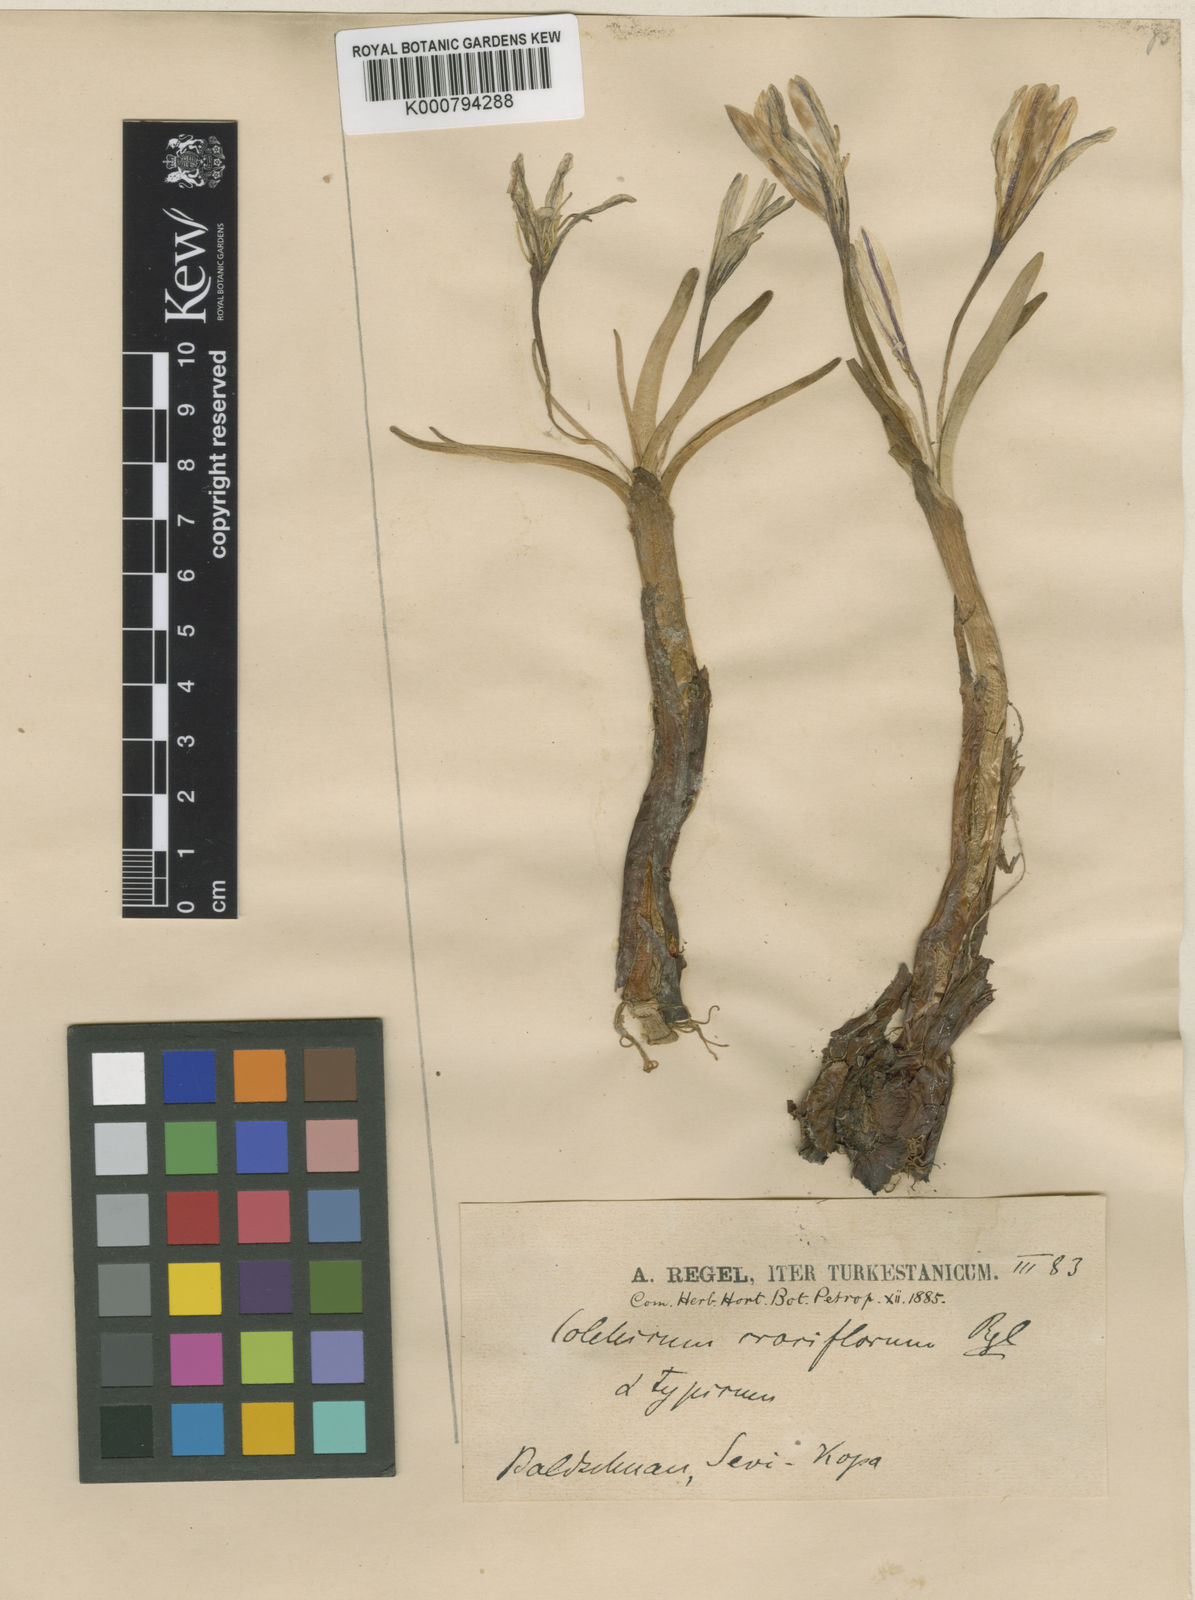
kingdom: Plantae
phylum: Tracheophyta
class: Liliopsida
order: Liliales
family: Colchicaceae
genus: Colchicum
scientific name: Colchicum kesselringii
